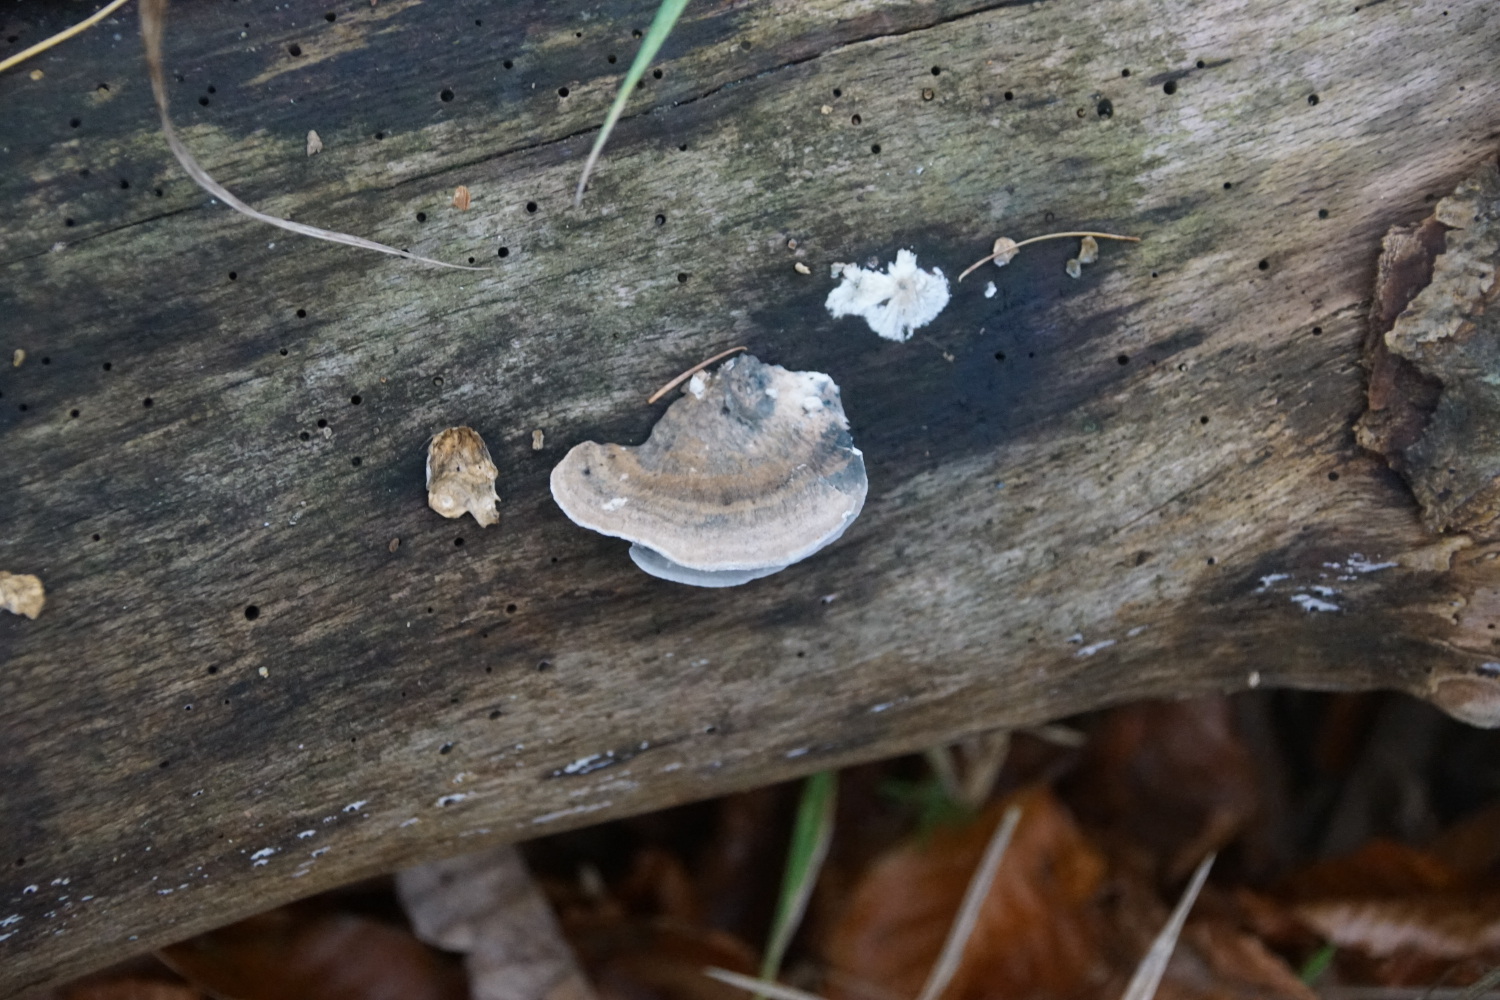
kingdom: Fungi
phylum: Basidiomycota
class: Agaricomycetes
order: Polyporales
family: Polyporaceae
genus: Cyanosporus
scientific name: Cyanosporus alni
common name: blegblå kødporesvamp
